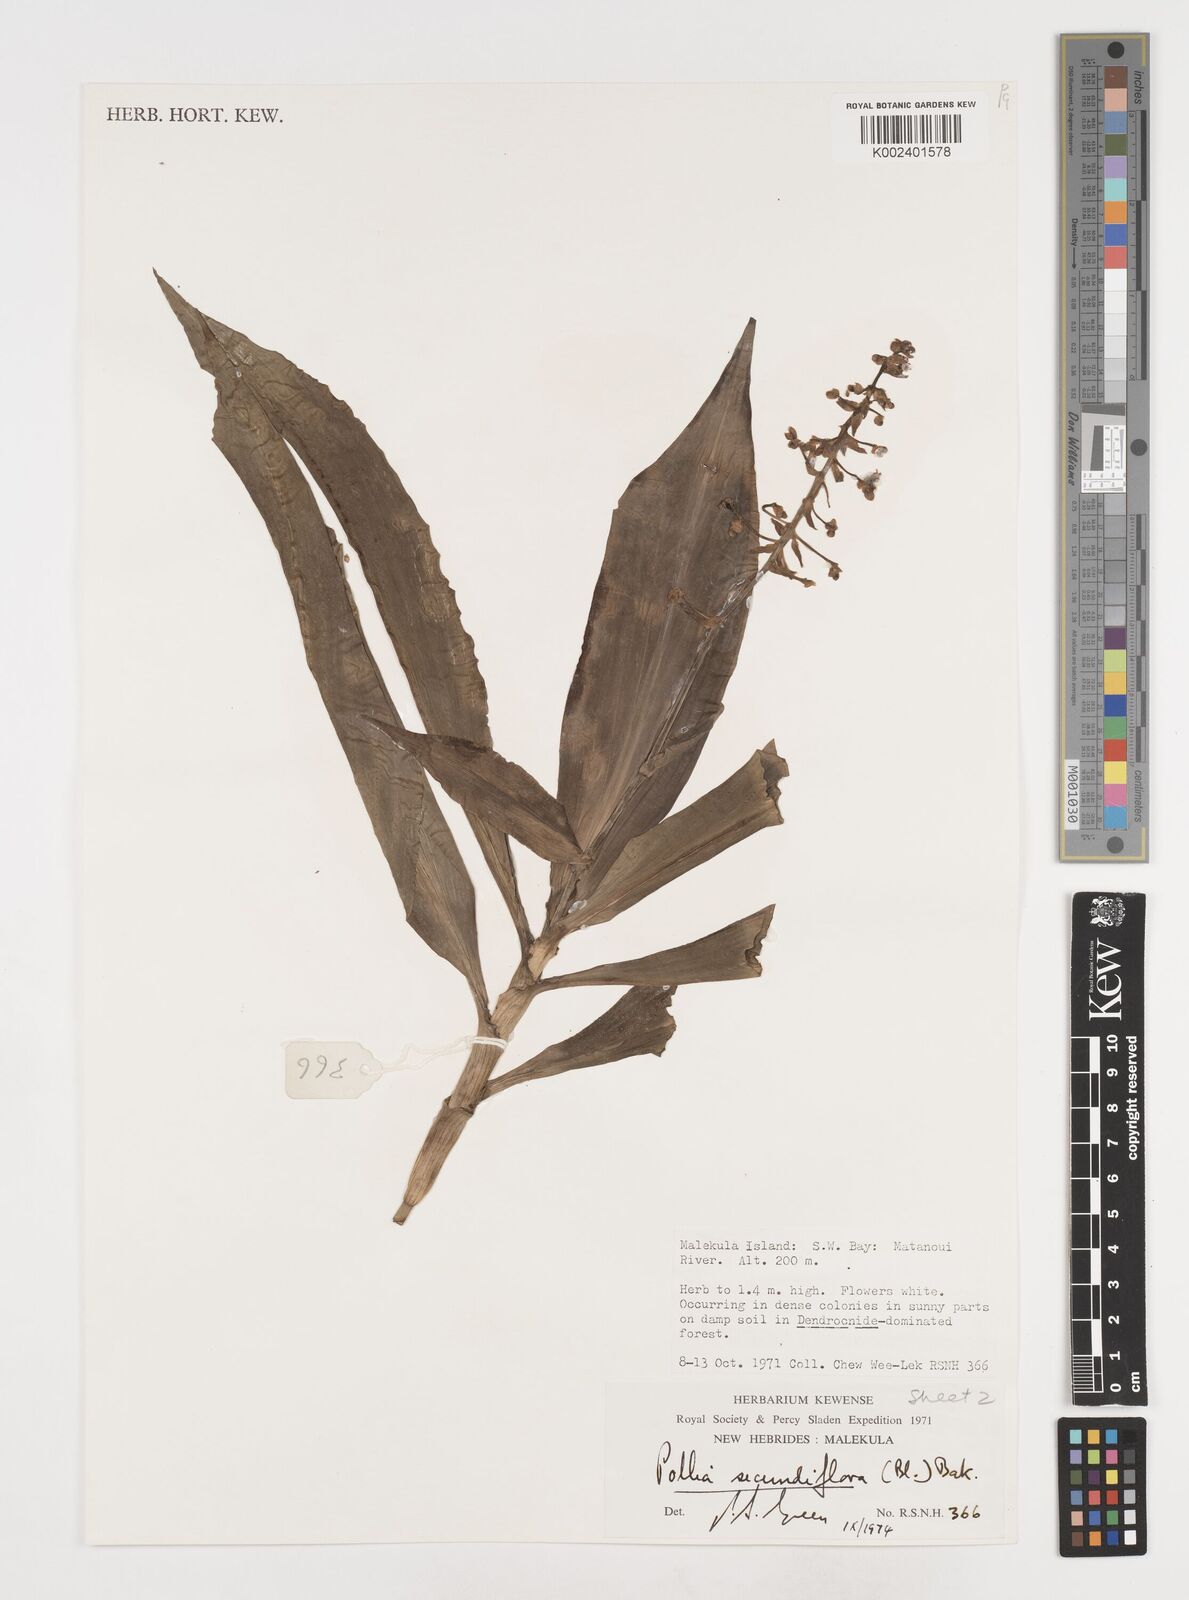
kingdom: Plantae
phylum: Tracheophyta
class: Liliopsida
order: Commelinales
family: Commelinaceae
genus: Pollia
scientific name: Pollia secundiflora
